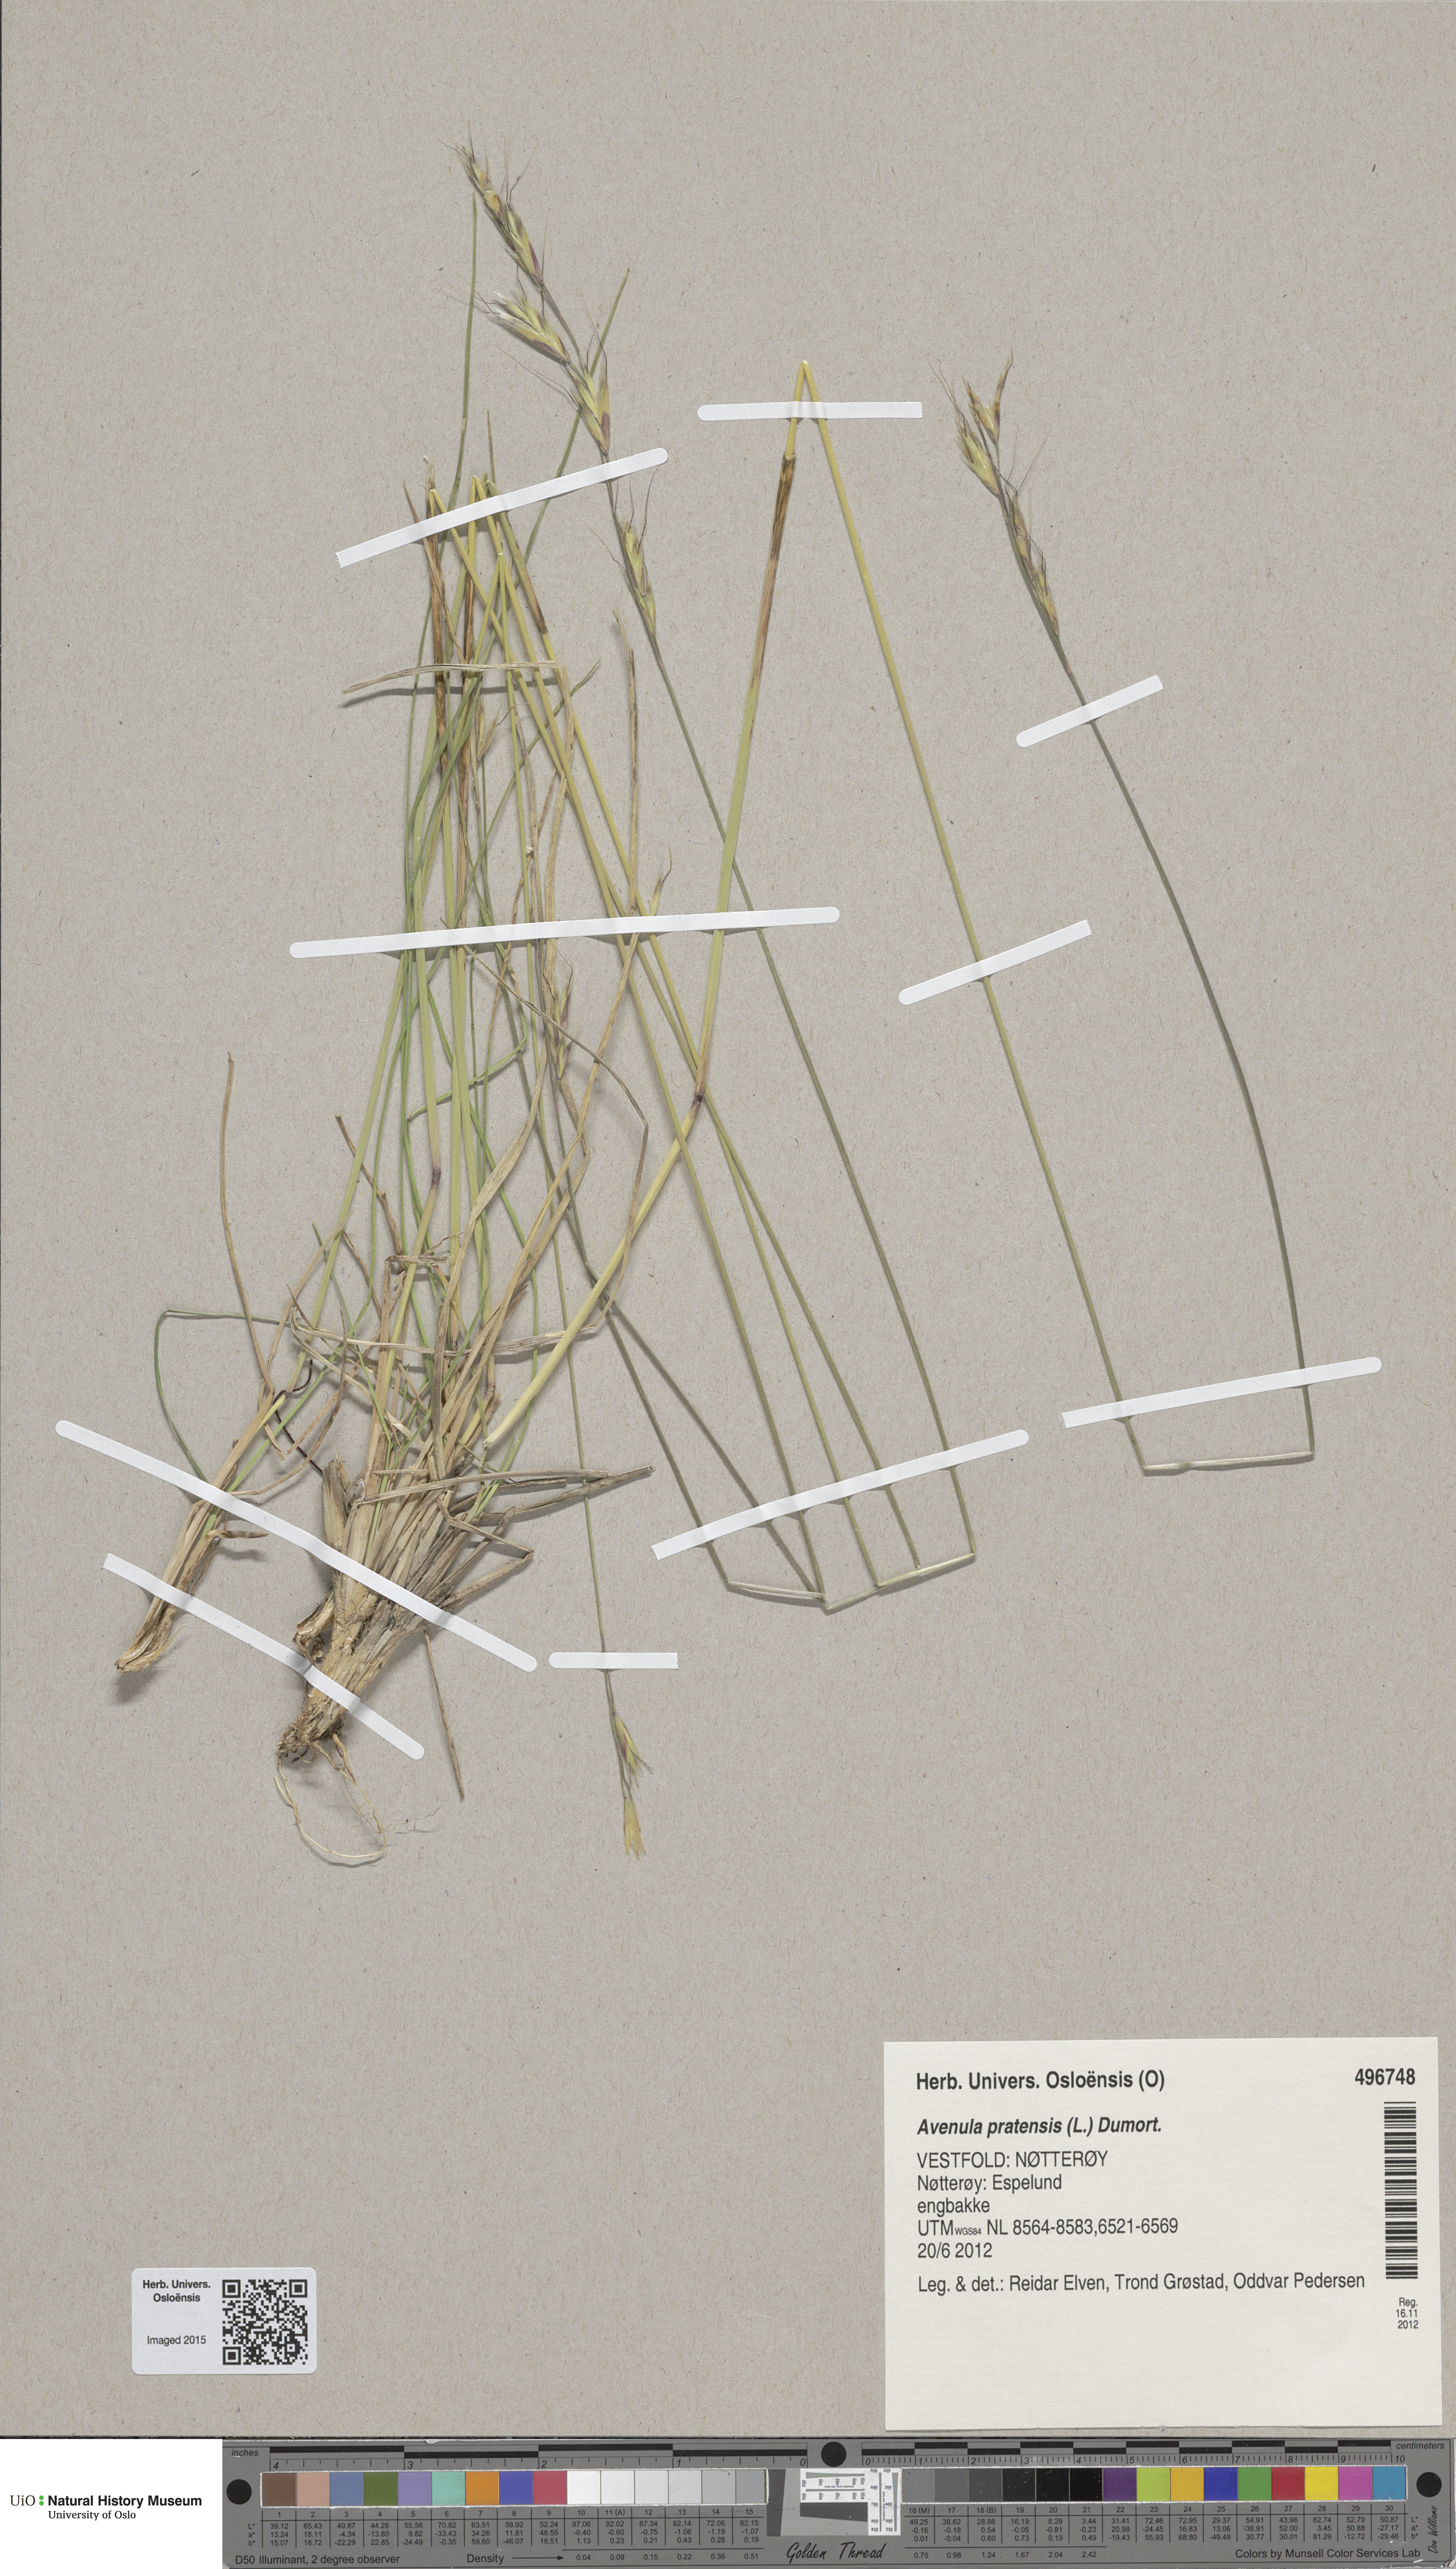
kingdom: Plantae
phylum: Tracheophyta
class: Liliopsida
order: Poales
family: Poaceae
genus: Helictochloa
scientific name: Helictochloa pratensis
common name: Meadow oat grass
